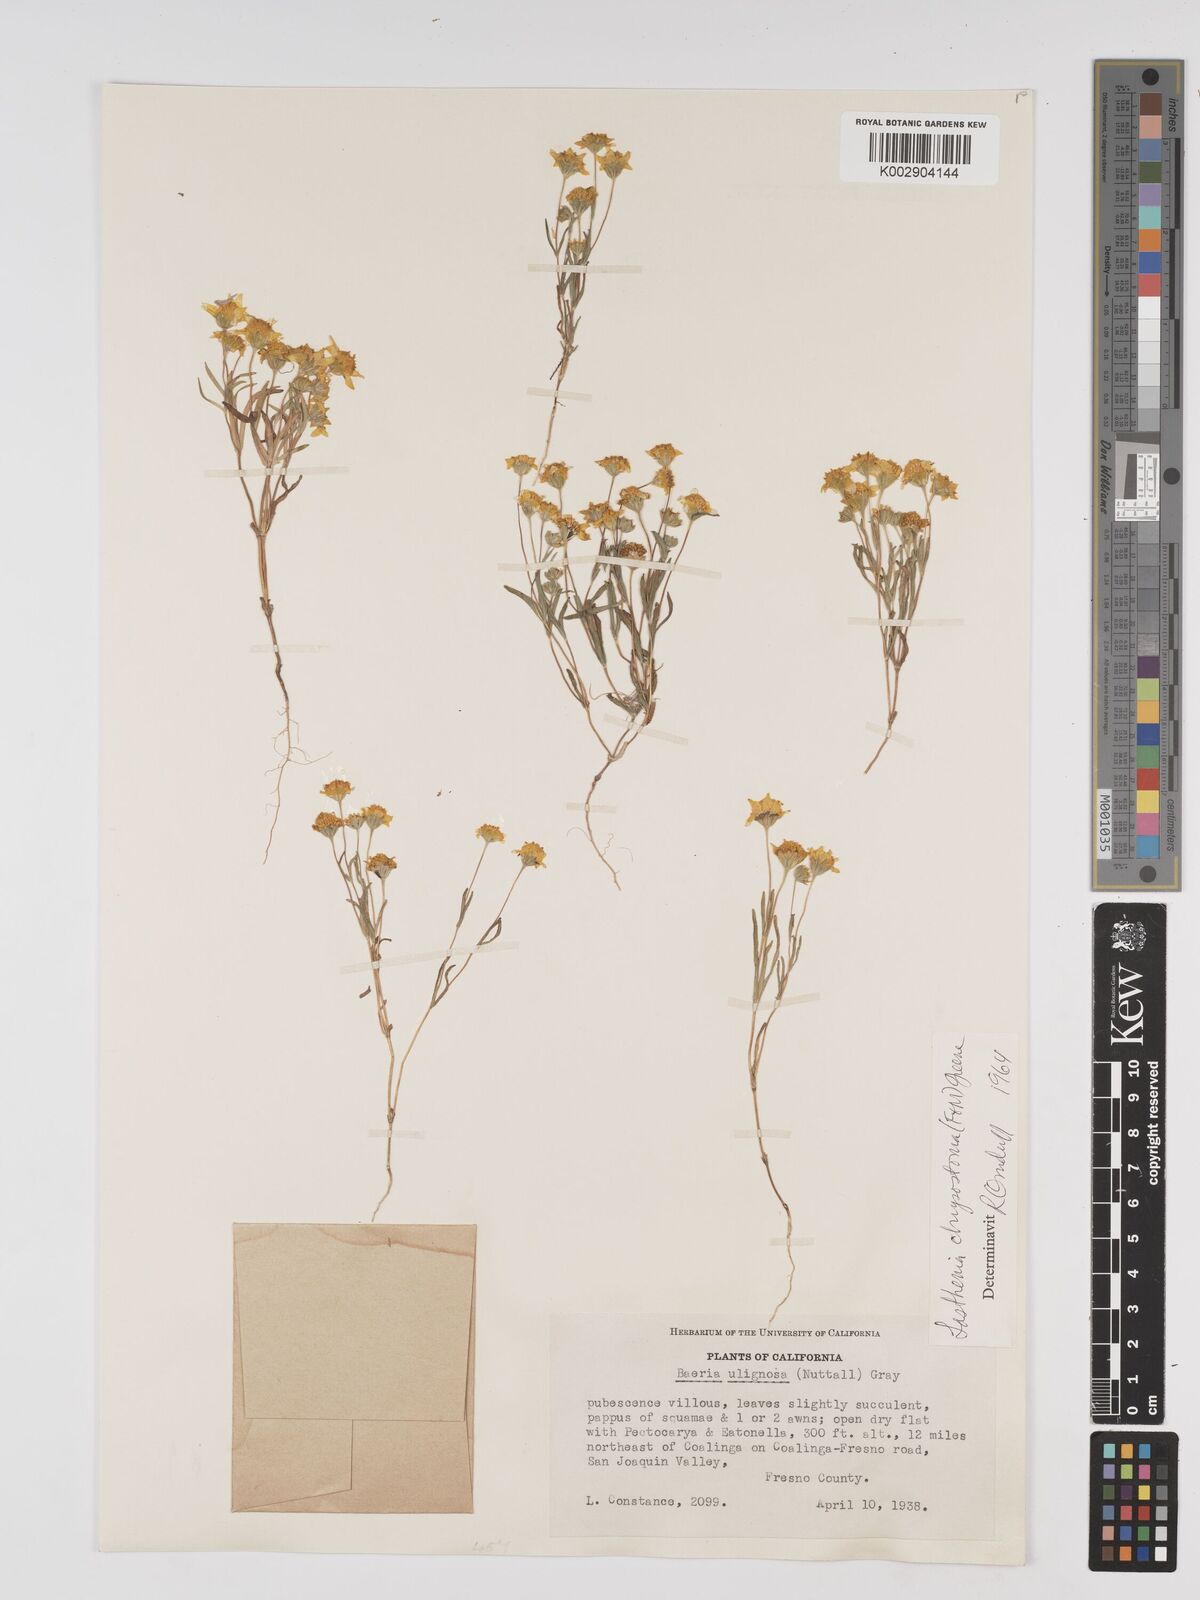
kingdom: Plantae
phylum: Tracheophyta
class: Magnoliopsida
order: Asterales
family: Asteraceae
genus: Lasthenia
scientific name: Lasthenia chrysantha
